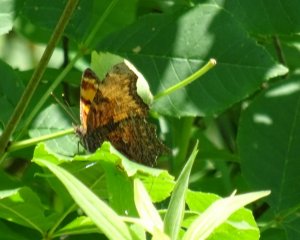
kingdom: Animalia
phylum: Arthropoda
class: Insecta
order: Lepidoptera
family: Nymphalidae
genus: Polygonia
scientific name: Polygonia progne
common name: Gray Comma
